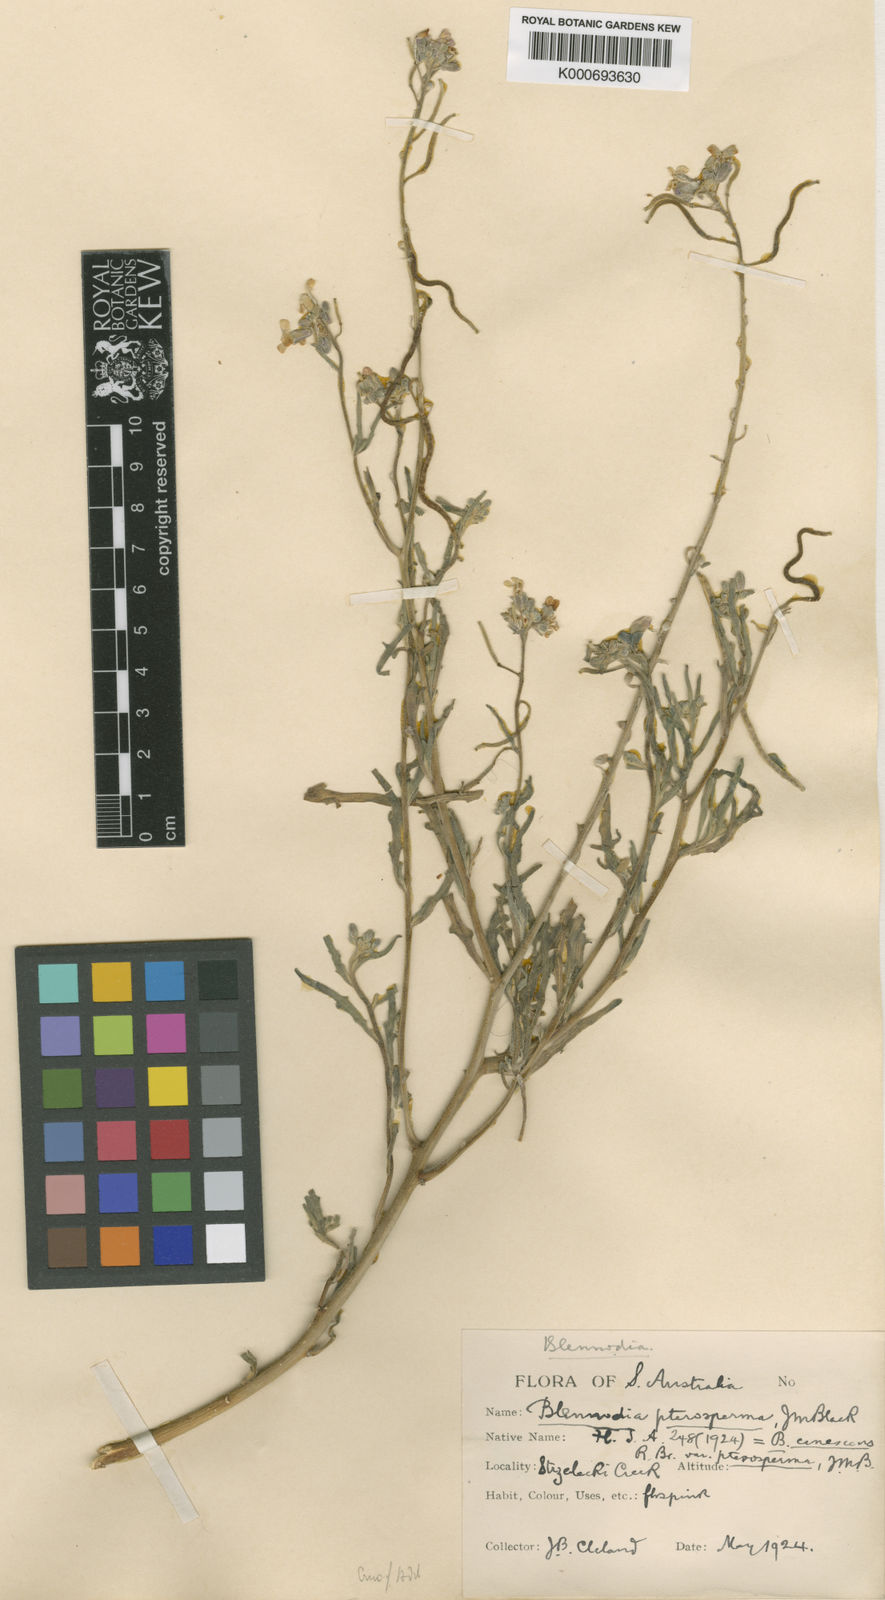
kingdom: Plantae
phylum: Tracheophyta
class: Magnoliopsida
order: Brassicales
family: Brassicaceae
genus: Drabastrum
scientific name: Drabastrum alpestre
